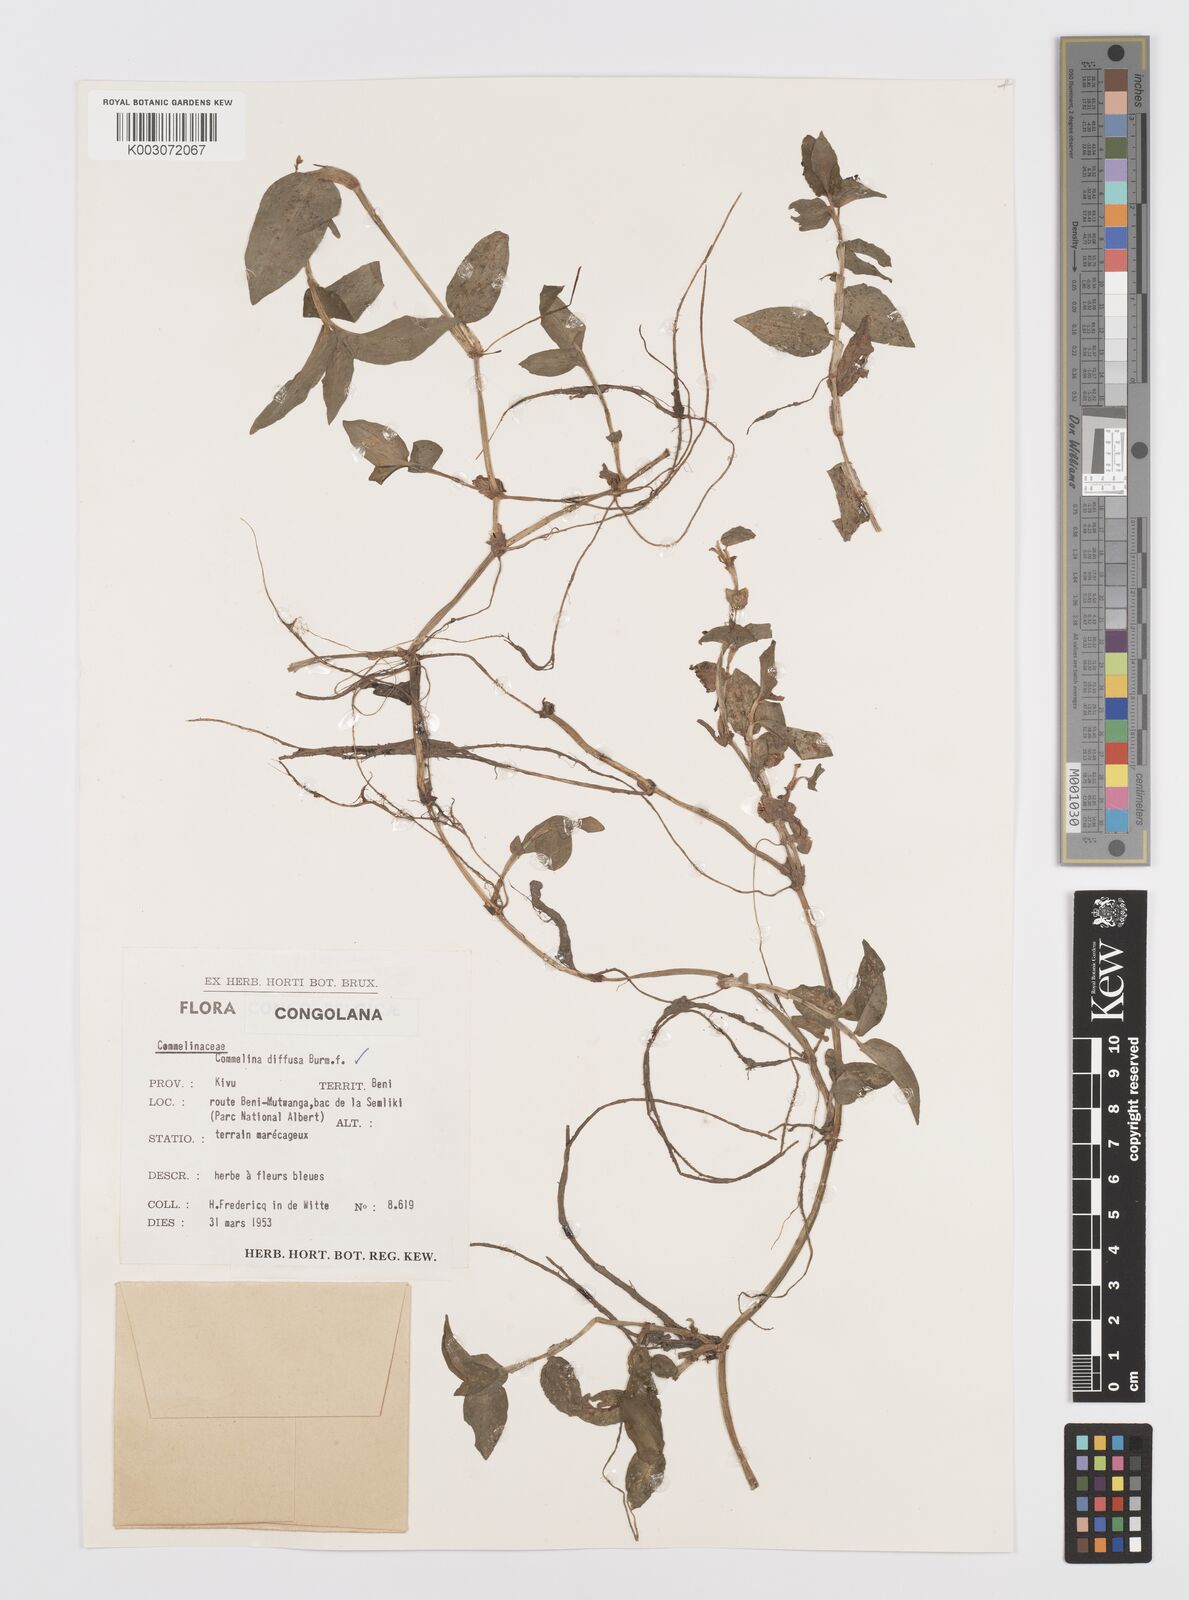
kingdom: Plantae
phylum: Tracheophyta
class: Liliopsida
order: Commelinales
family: Commelinaceae
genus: Commelina
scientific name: Commelina diffusa
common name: Climbing dayflower
